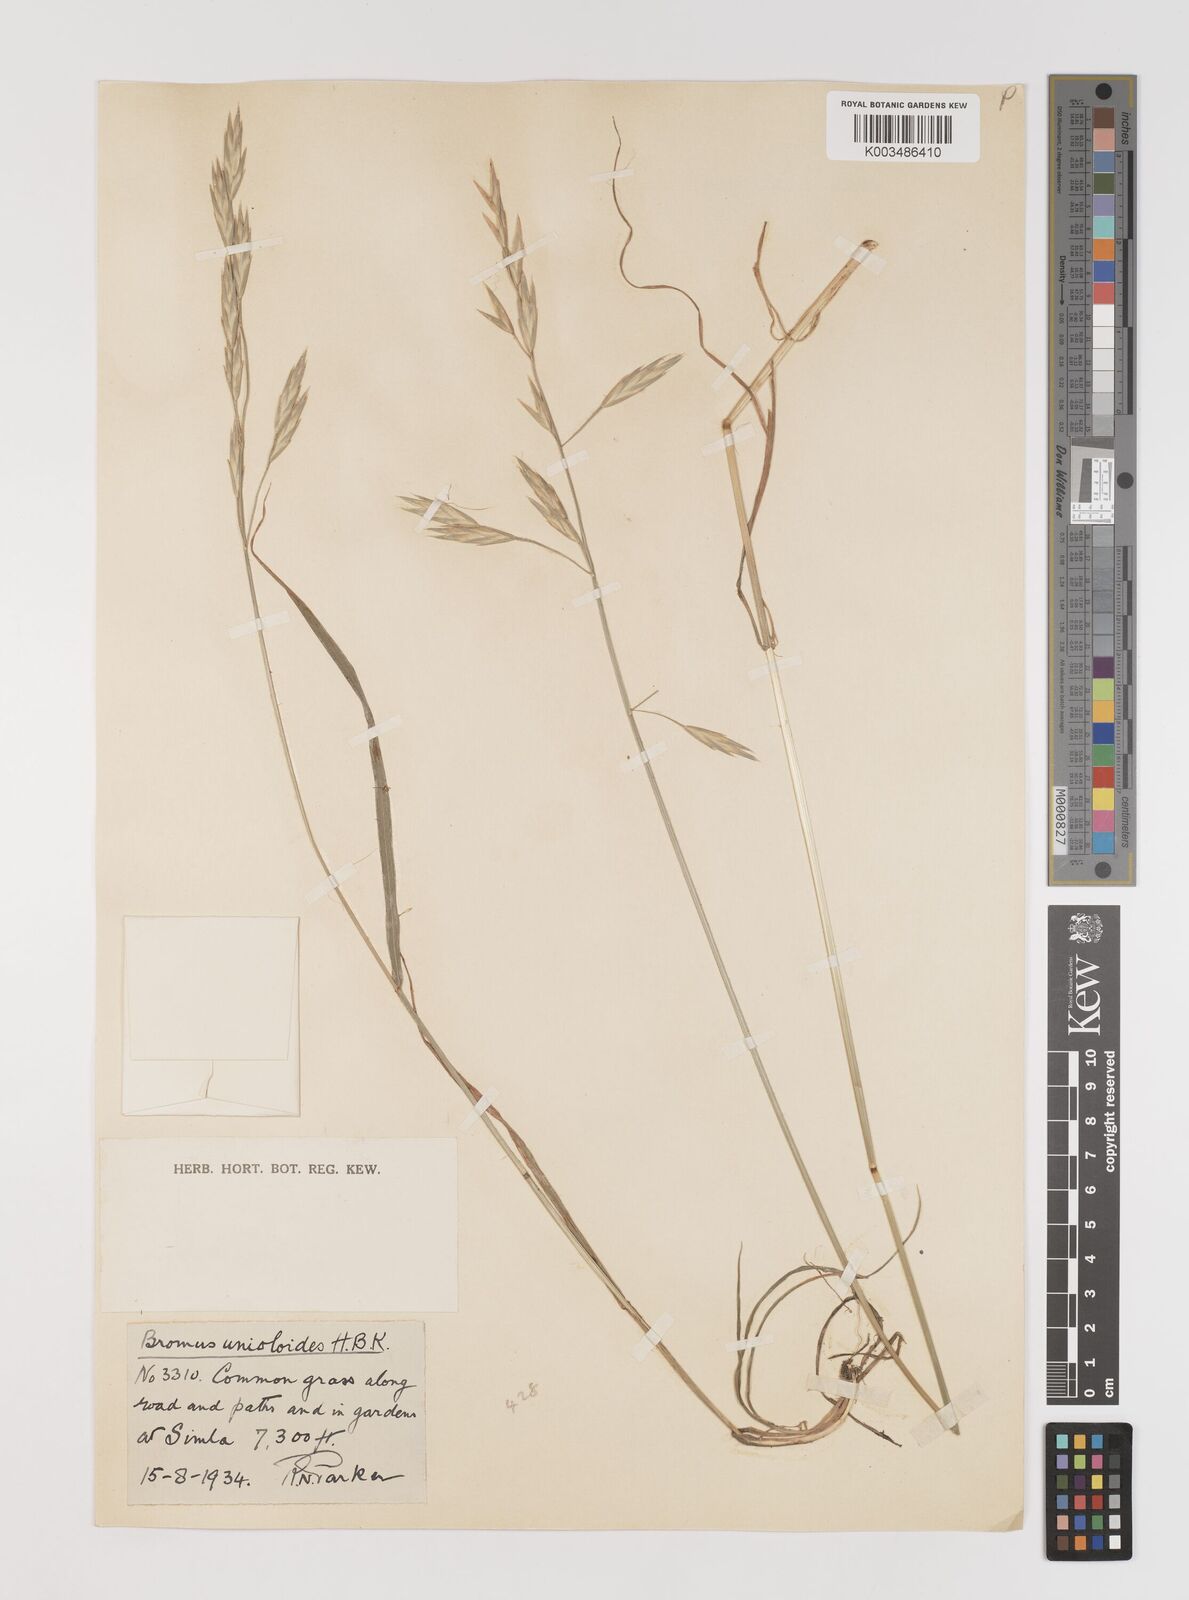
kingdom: Plantae
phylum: Tracheophyta
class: Liliopsida
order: Poales
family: Poaceae
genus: Bromus
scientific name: Bromus catharticus
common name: Rescuegrass
